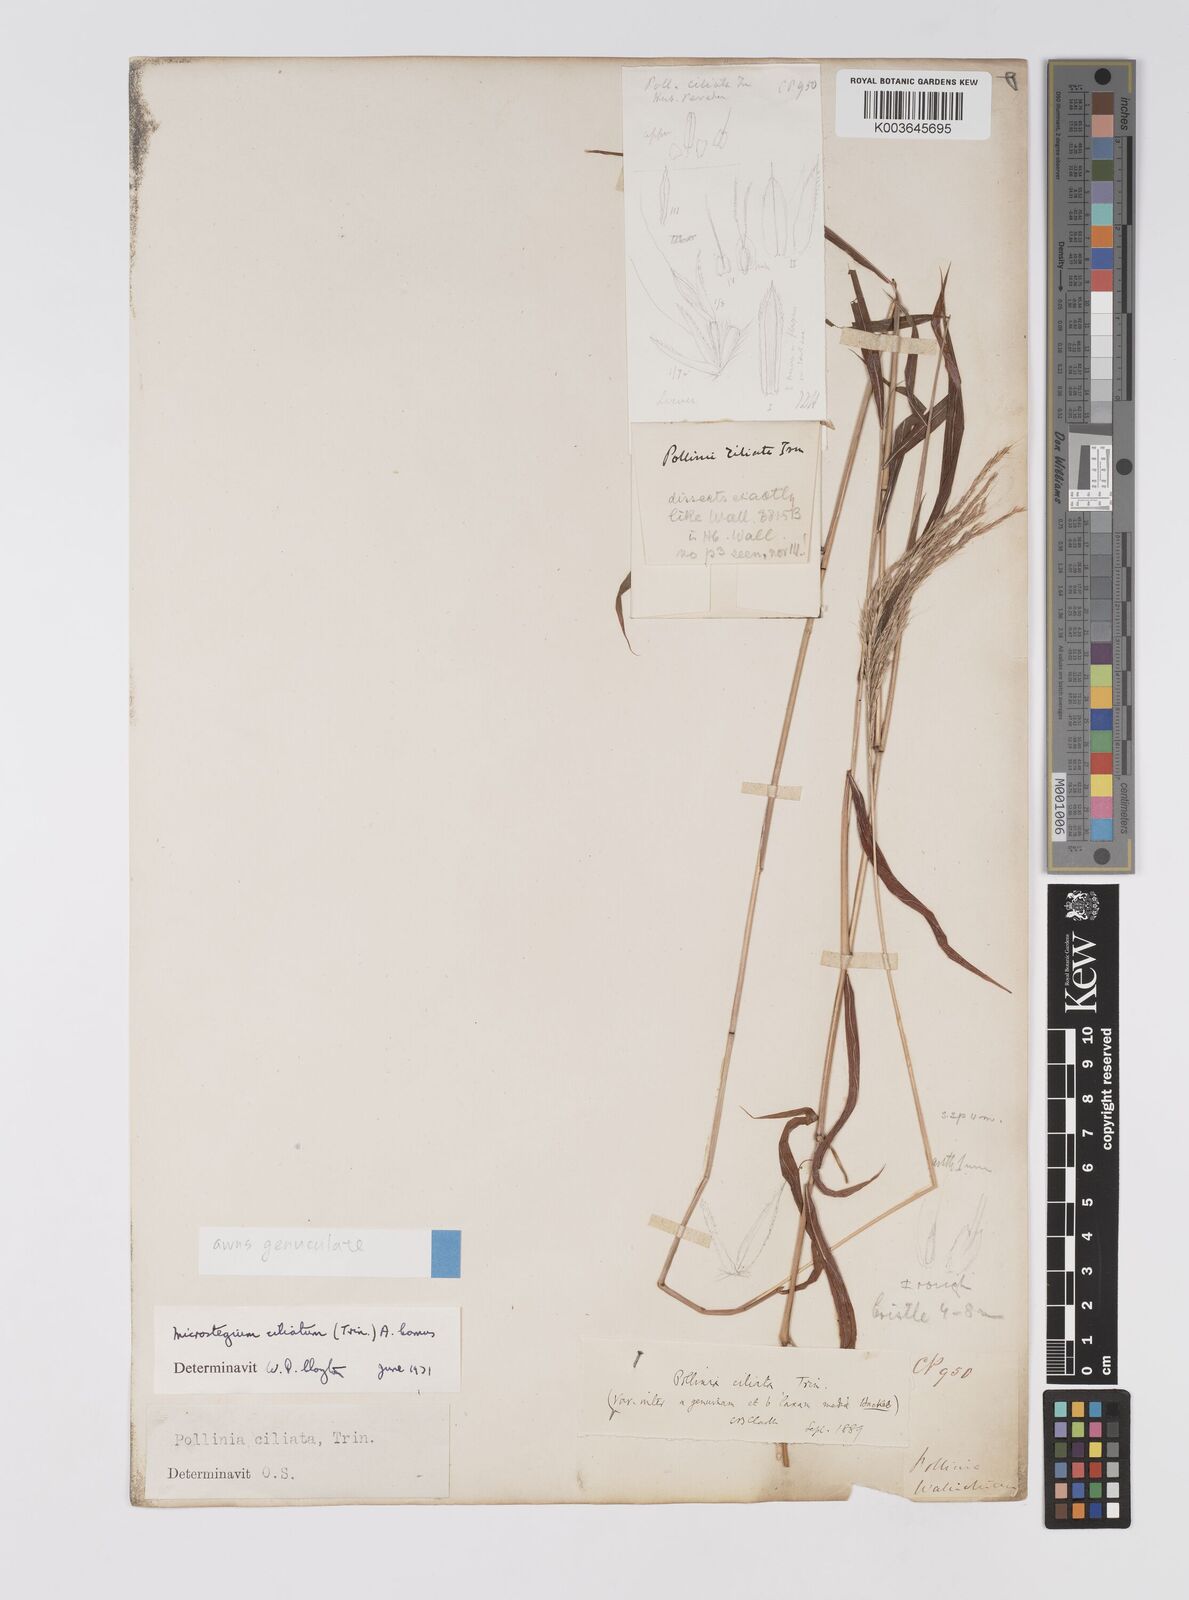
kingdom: Plantae
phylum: Tracheophyta
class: Liliopsida
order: Poales
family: Poaceae
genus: Microstegium
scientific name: Microstegium fasciculatum
